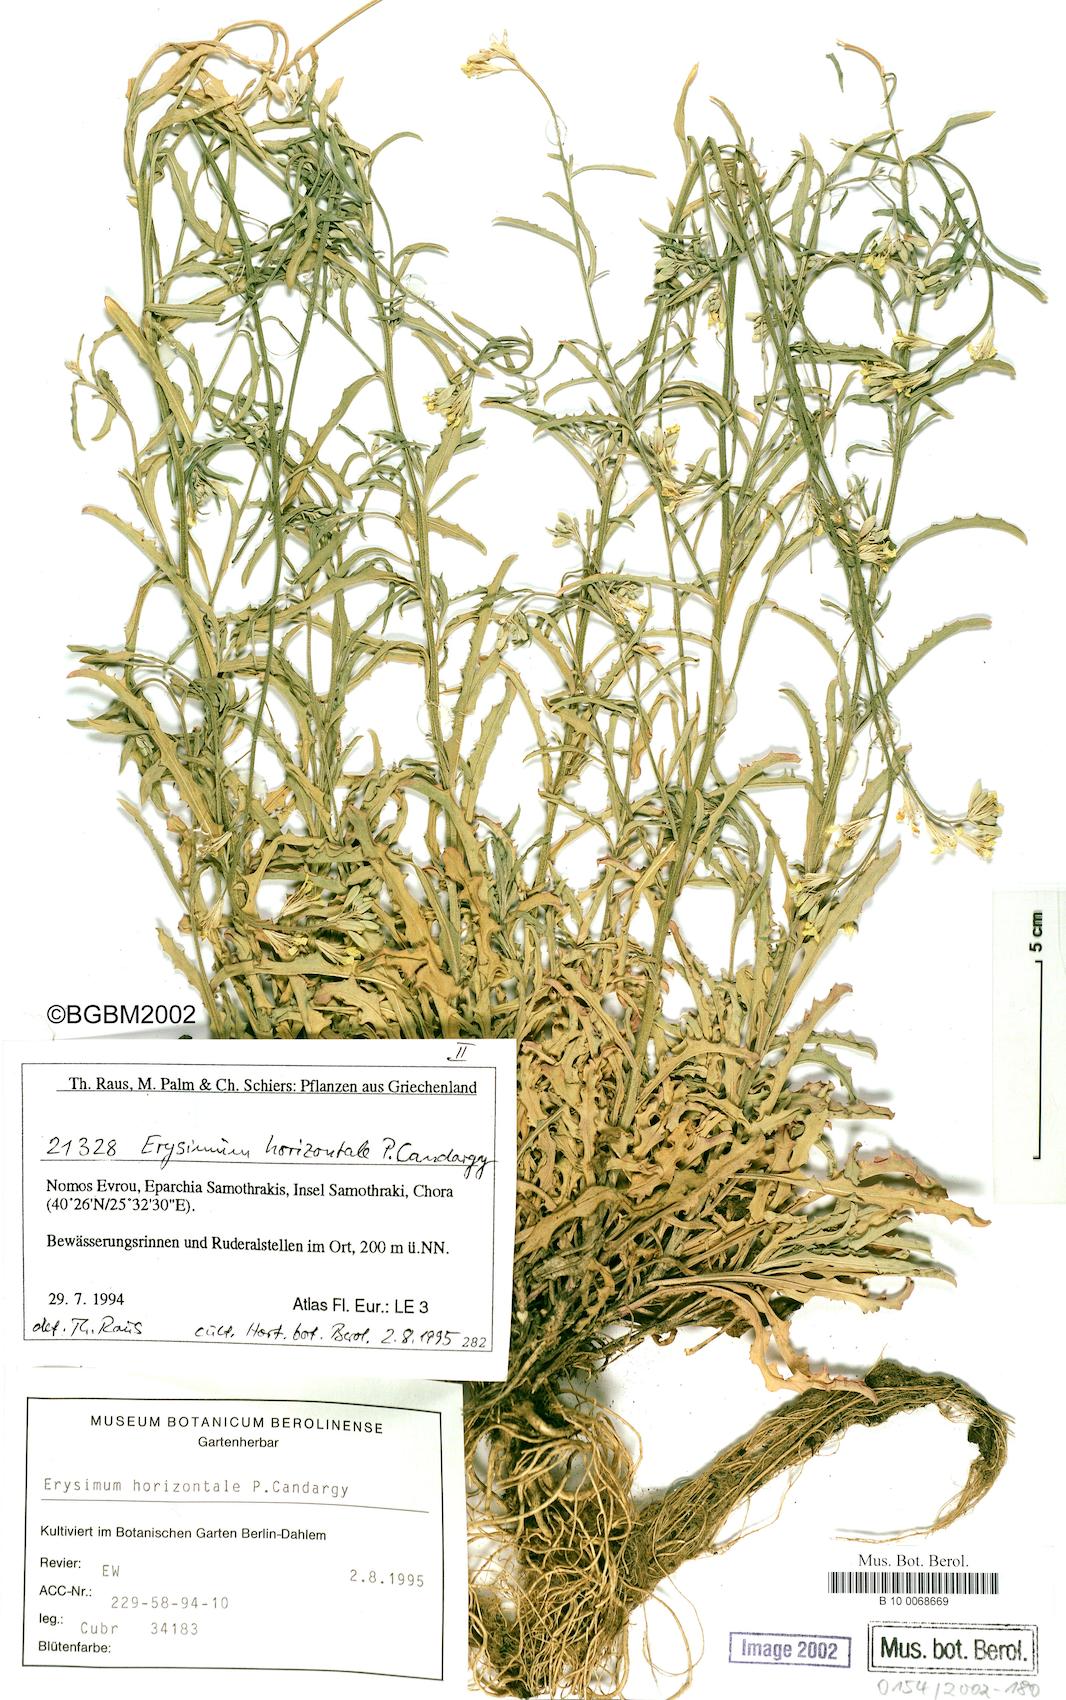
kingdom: Plantae
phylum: Tracheophyta
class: Magnoliopsida
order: Brassicales
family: Brassicaceae
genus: Erysimum
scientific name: Erysimum horizontale
